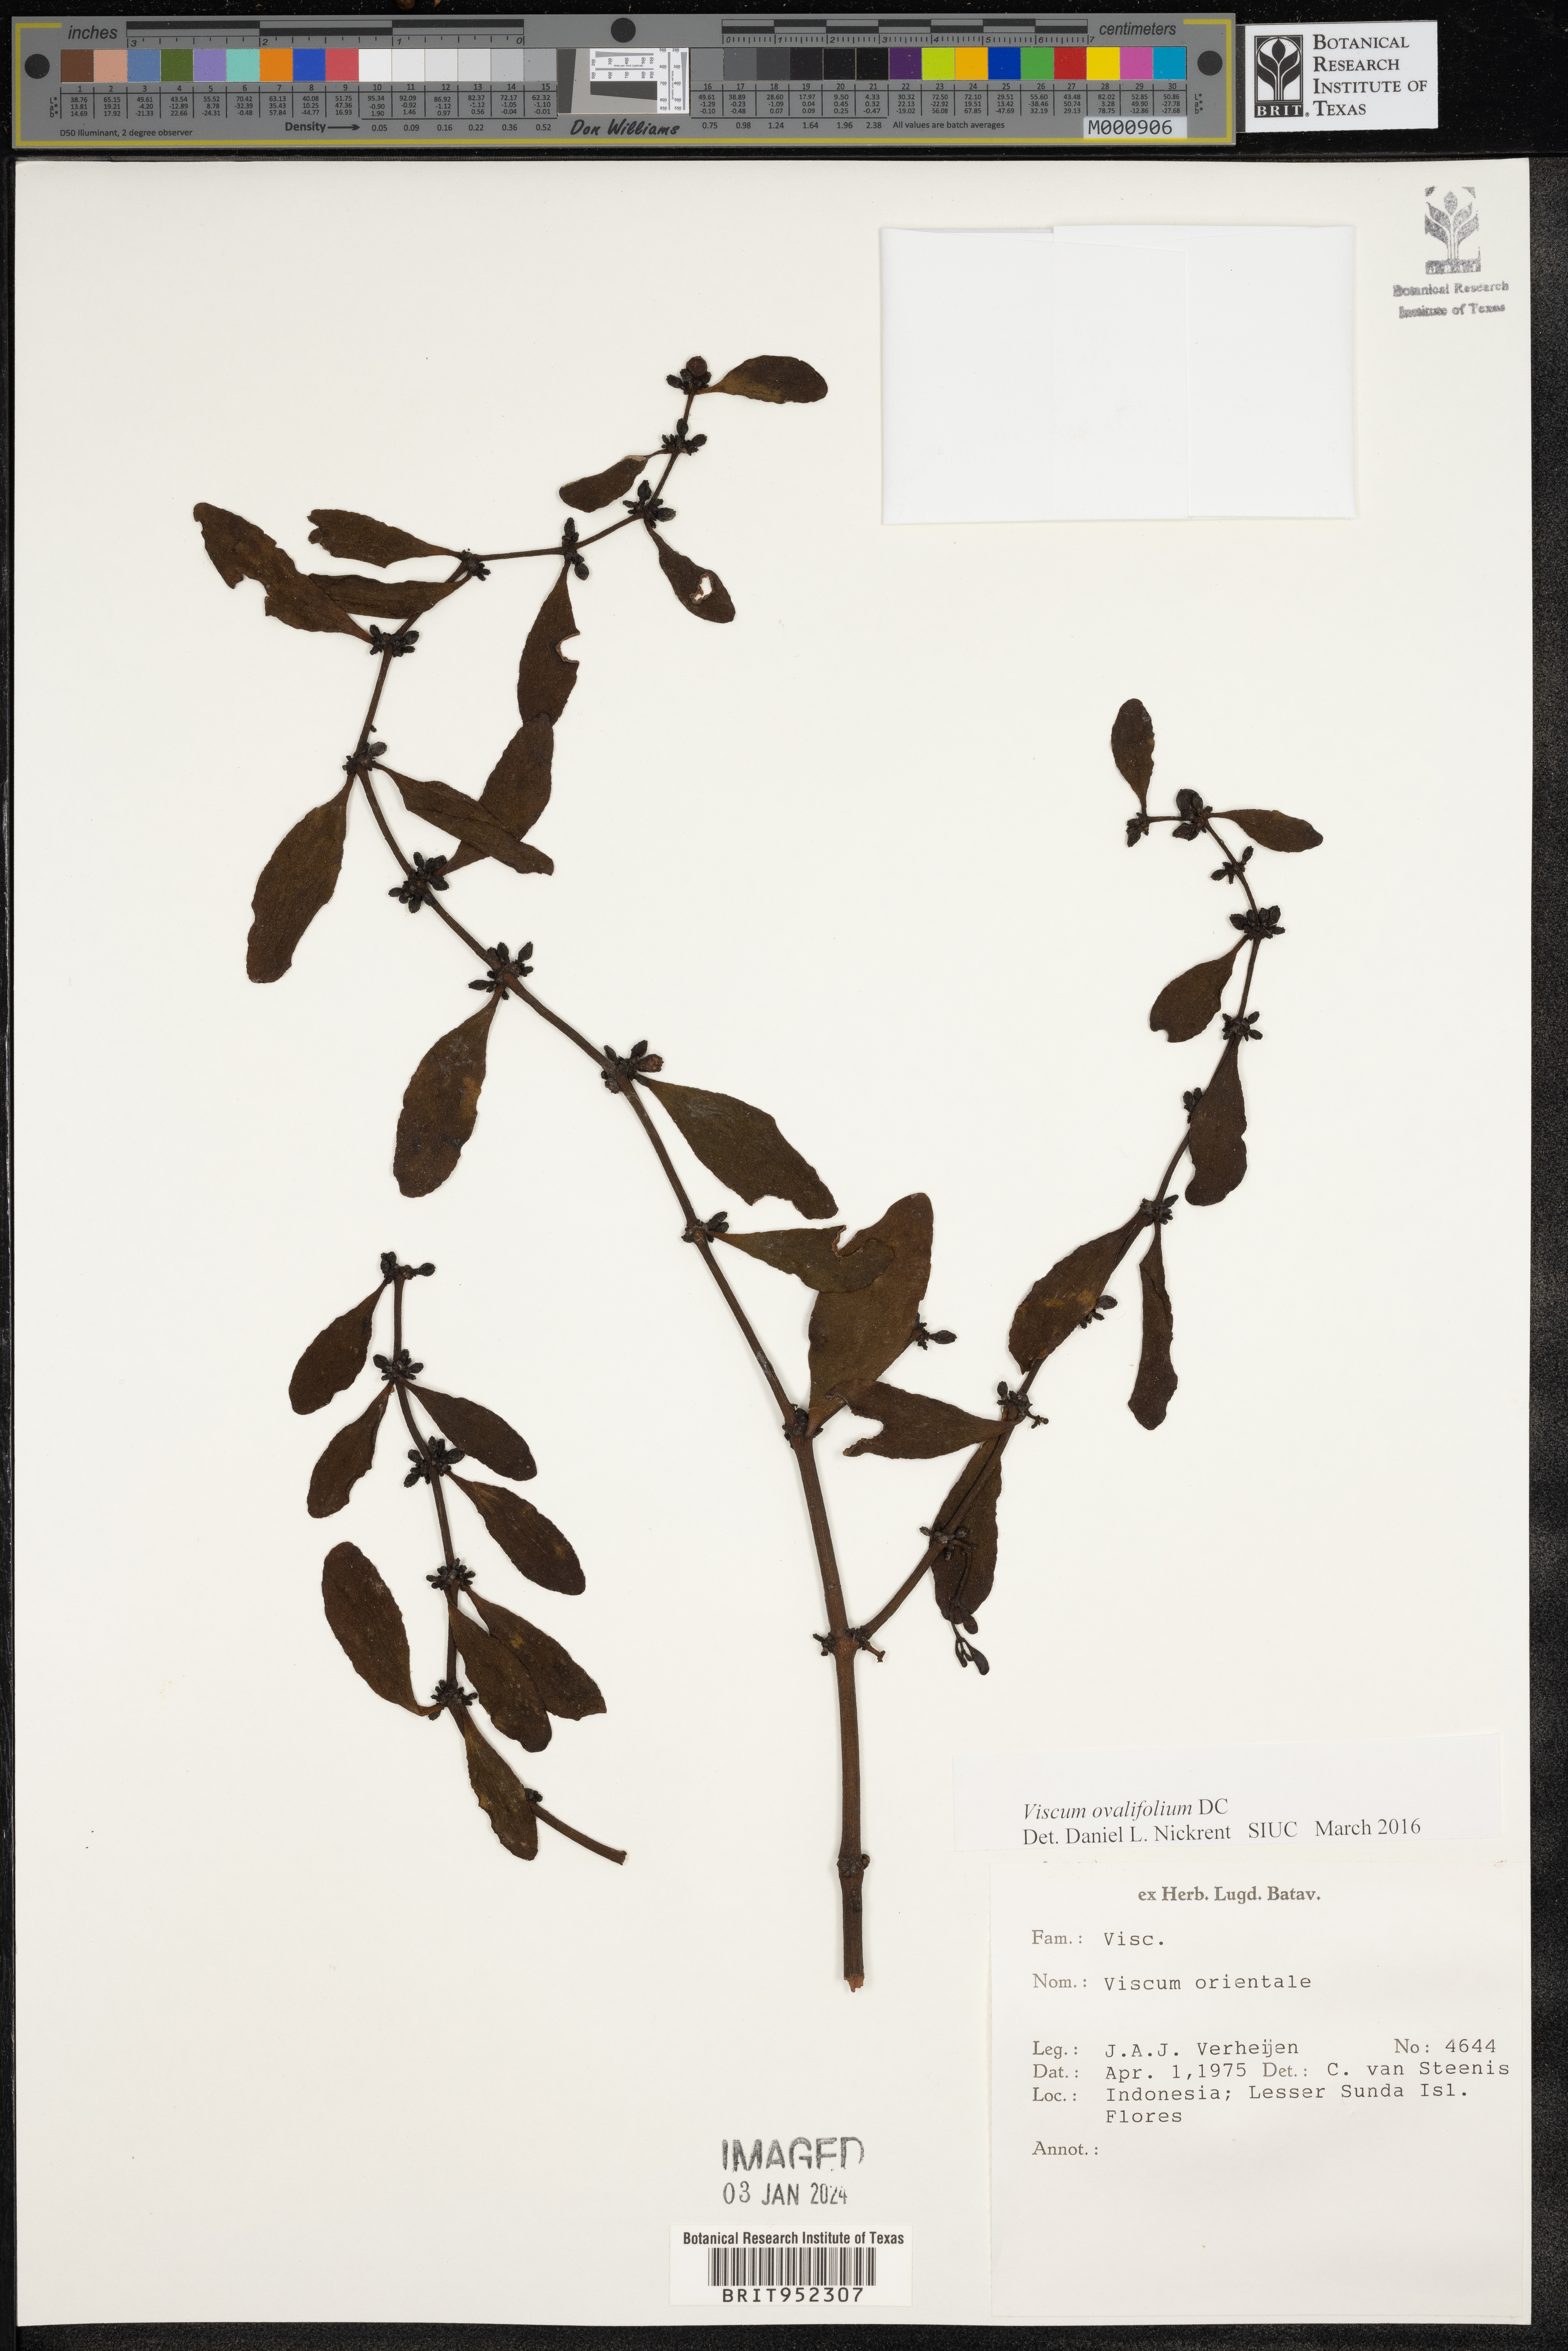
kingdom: Plantae
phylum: Tracheophyta
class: Magnoliopsida
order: Santalales
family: Viscaceae
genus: Viscum
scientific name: Viscum
